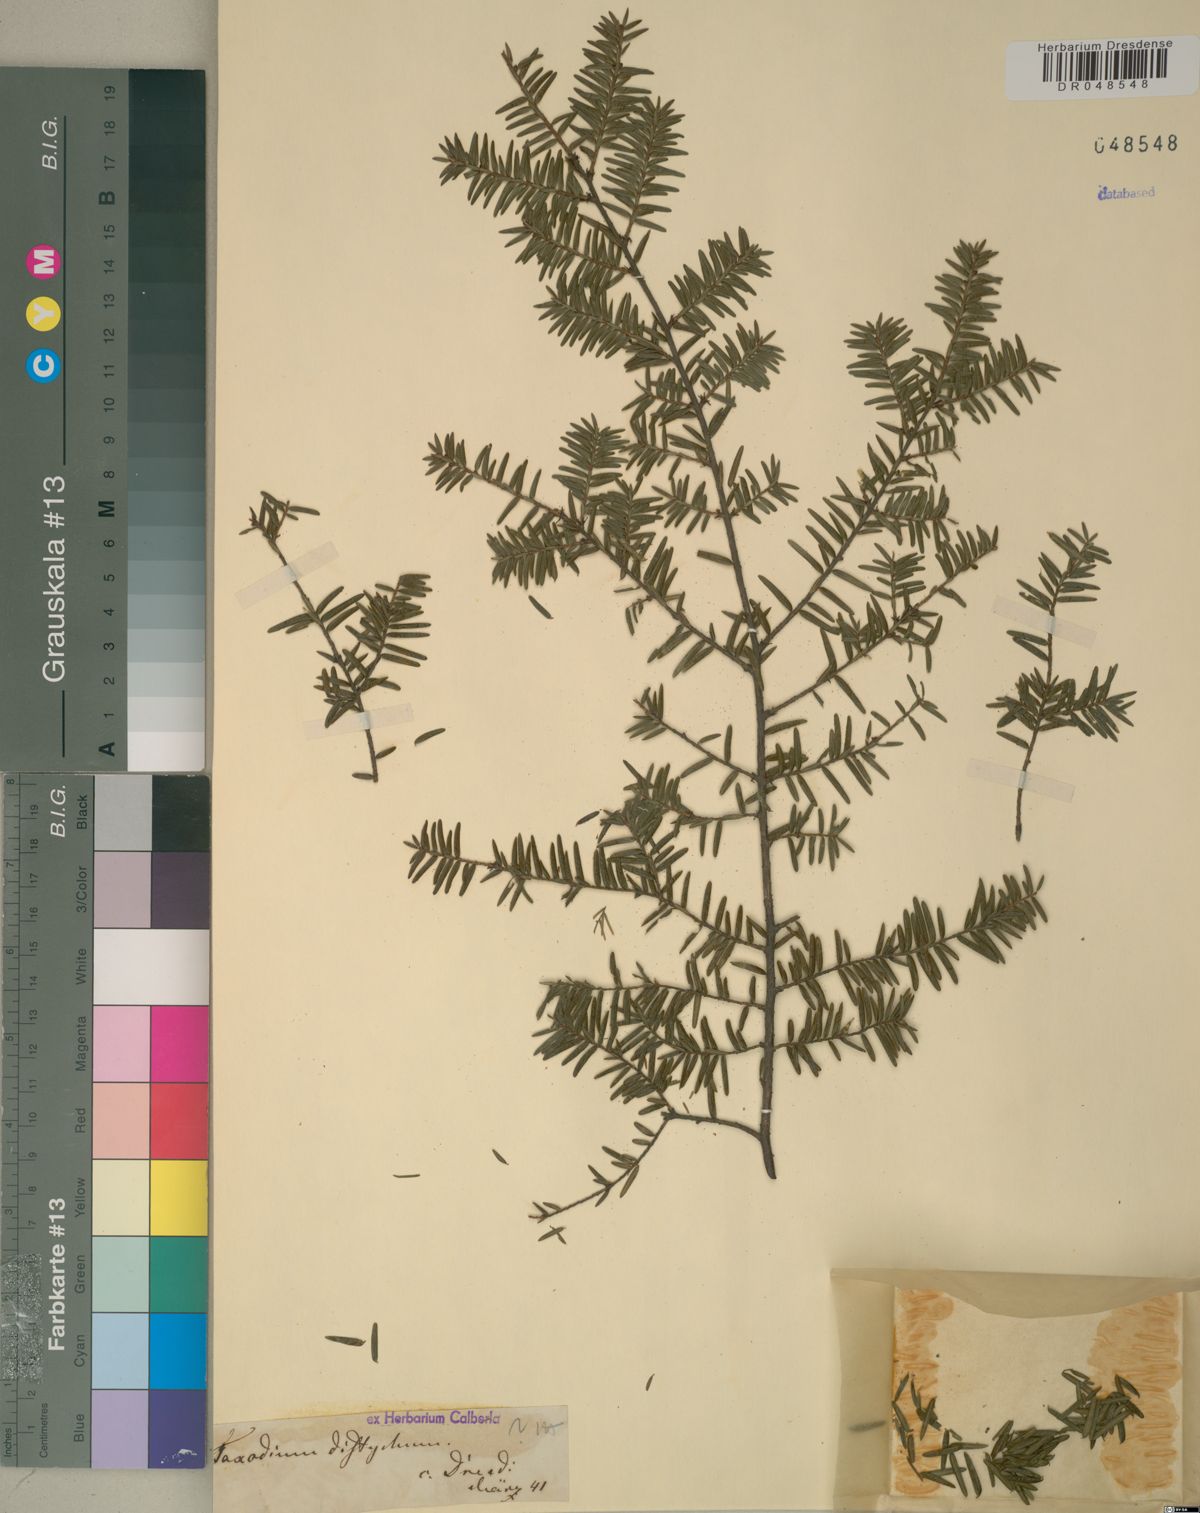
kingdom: Plantae
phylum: Tracheophyta
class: Pinopsida
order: Pinales
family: Cupressaceae
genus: Taxodium
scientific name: Taxodium distichum
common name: Bald cypress
